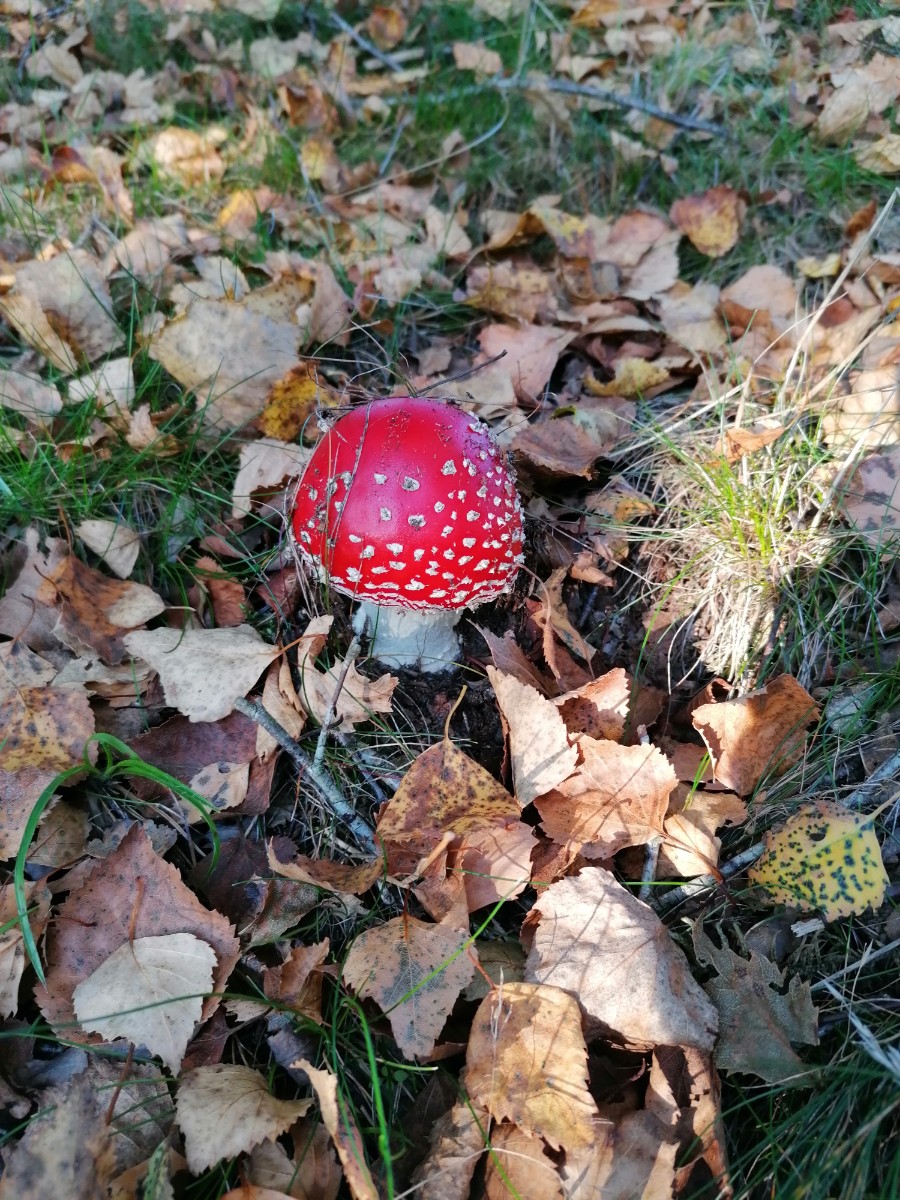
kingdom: Fungi
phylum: Basidiomycota
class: Agaricomycetes
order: Agaricales
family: Amanitaceae
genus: Amanita
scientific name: Amanita muscaria
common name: rød fluesvamp
